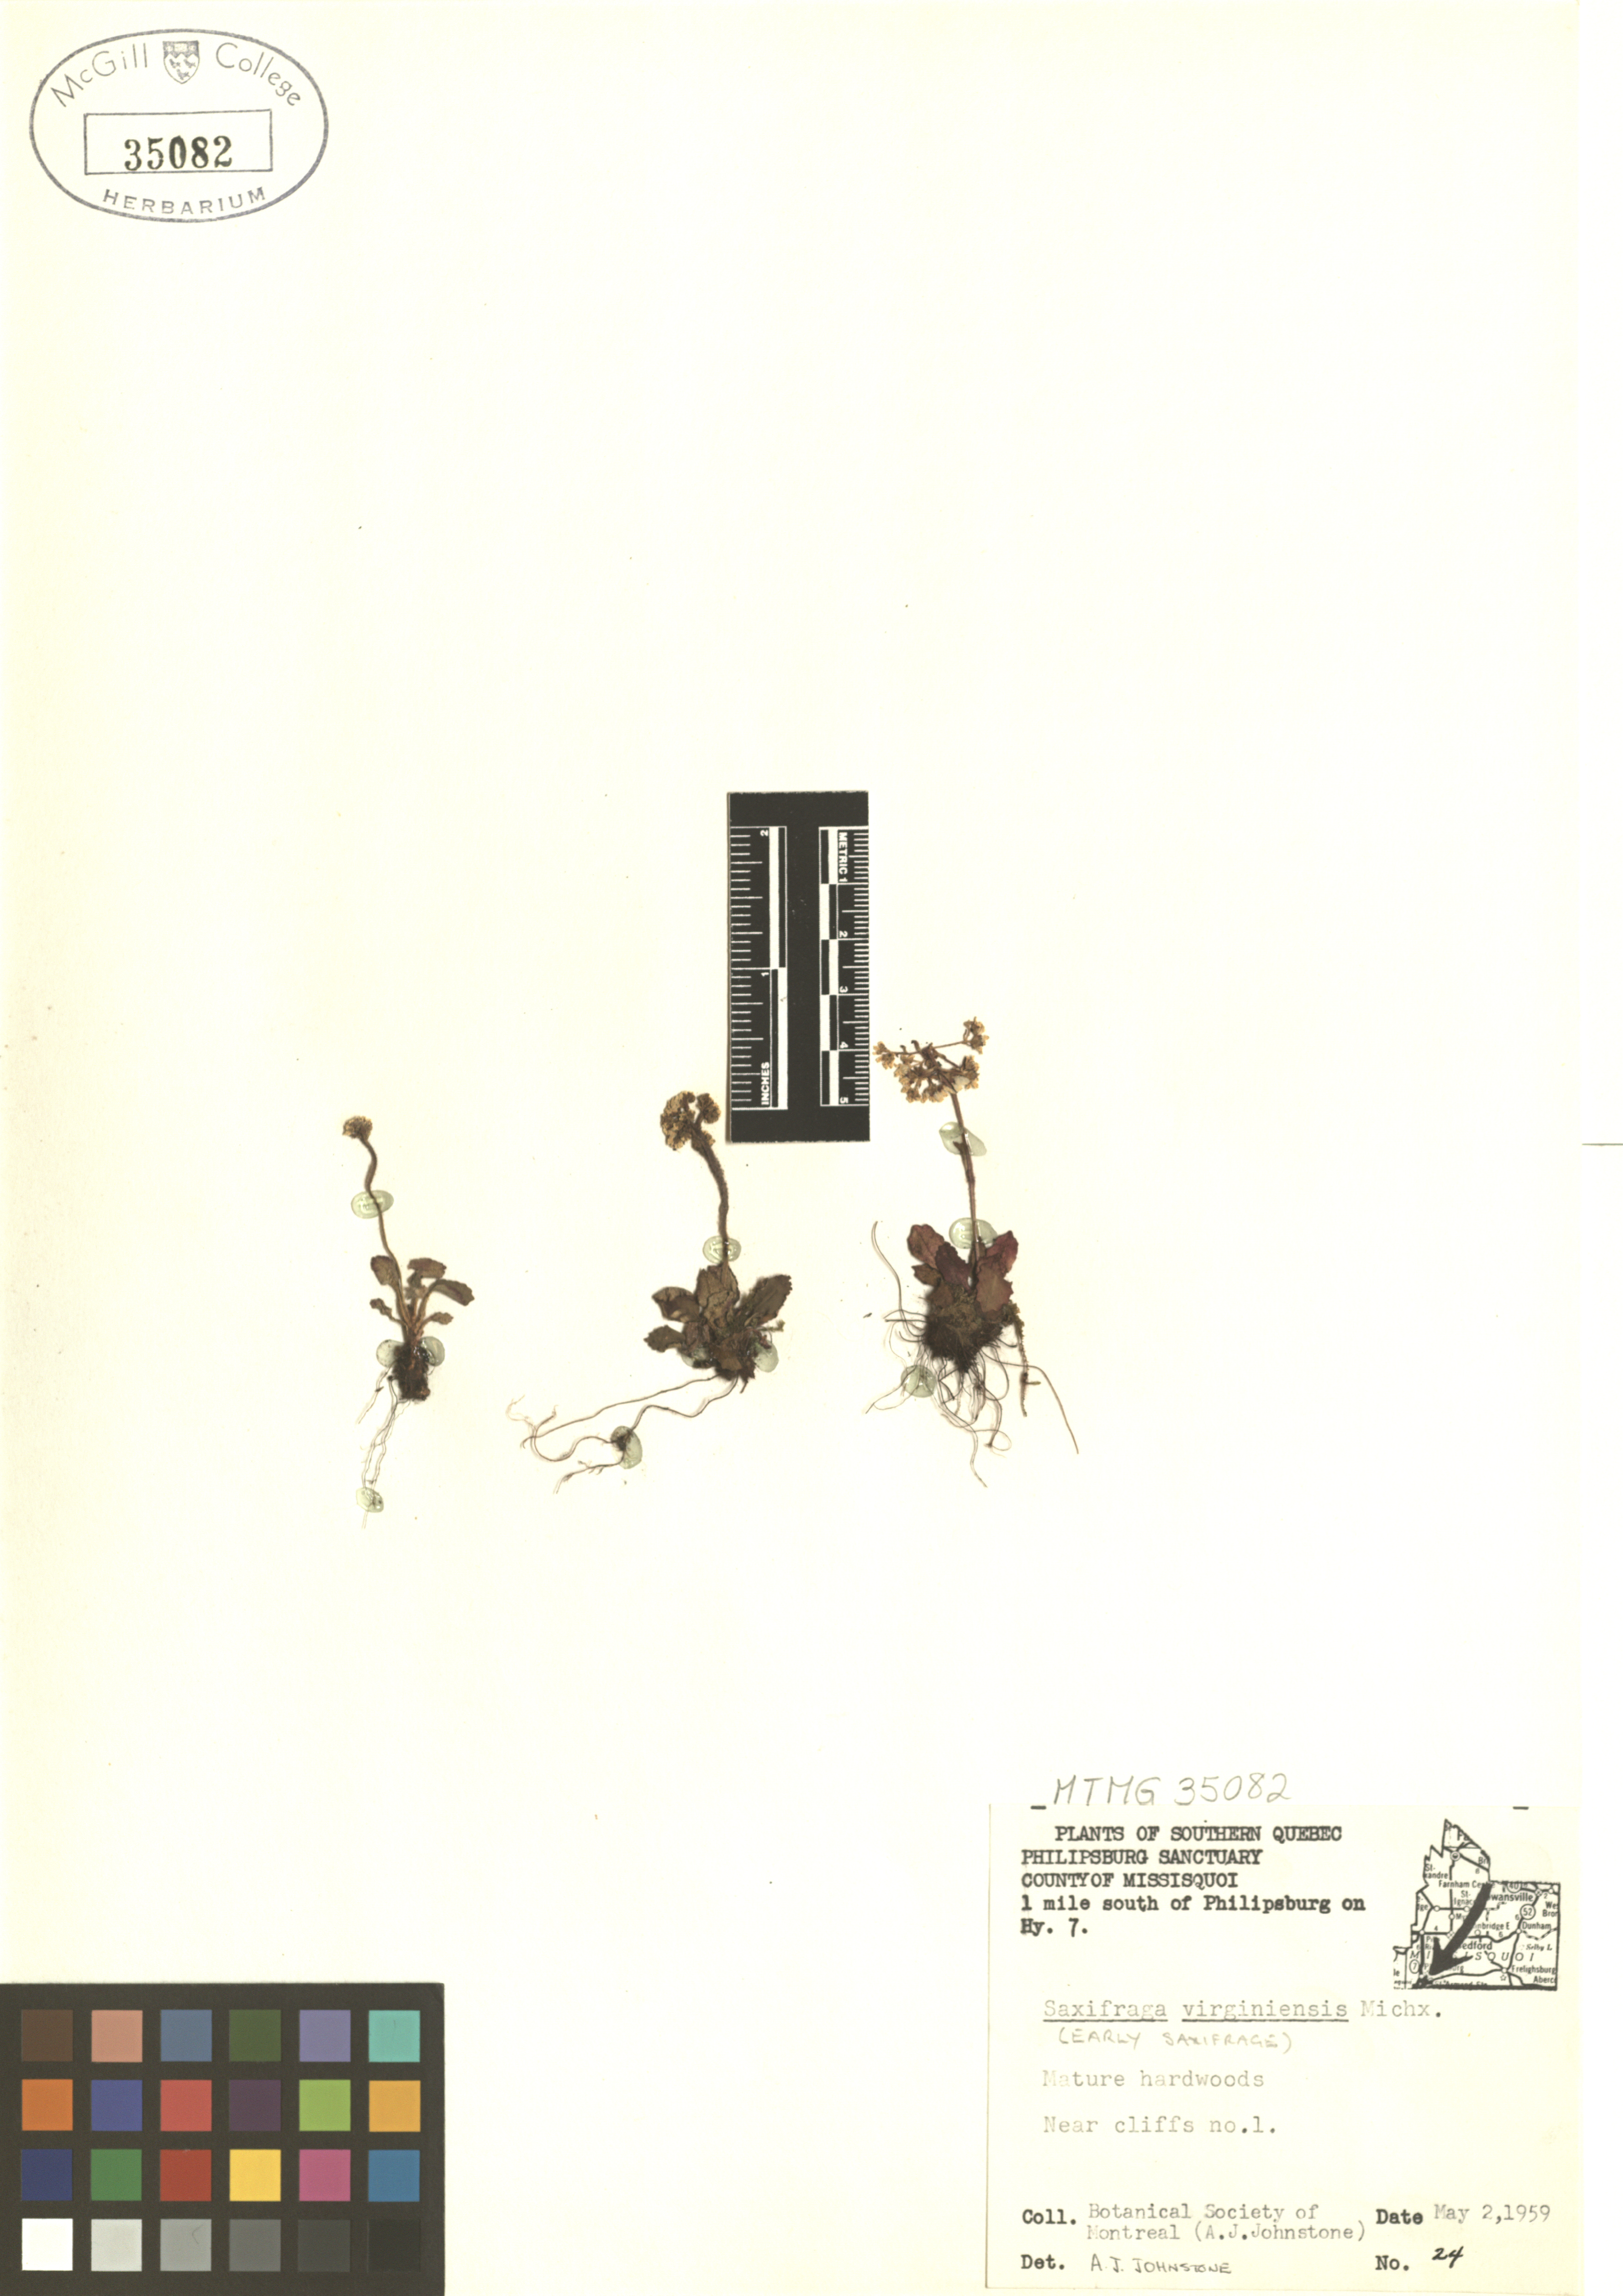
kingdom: Plantae
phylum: Tracheophyta
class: Magnoliopsida
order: Saxifragales
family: Saxifragaceae
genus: Micranthes
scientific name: Micranthes virginiensis
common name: Early saxifrage
